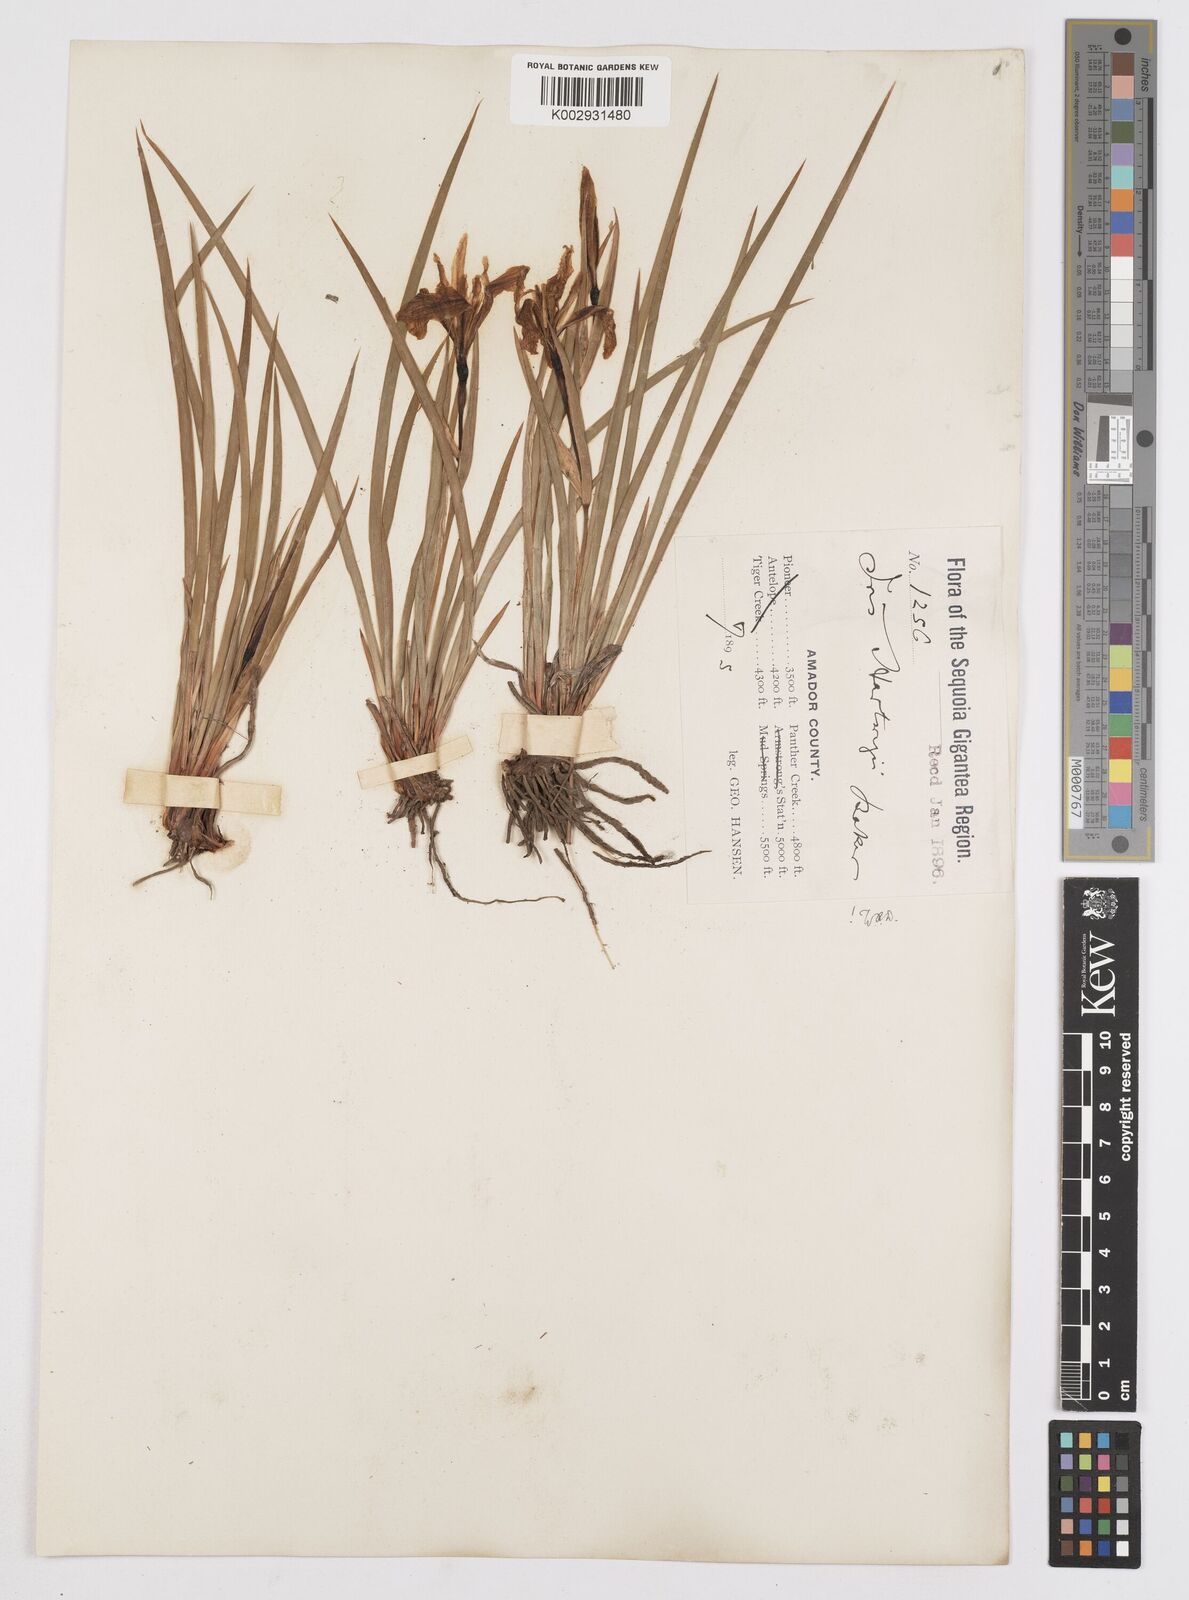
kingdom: Plantae
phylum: Tracheophyta
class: Liliopsida
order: Asparagales
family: Iridaceae
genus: Iris
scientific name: Iris hartwegii
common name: Sierra iris
